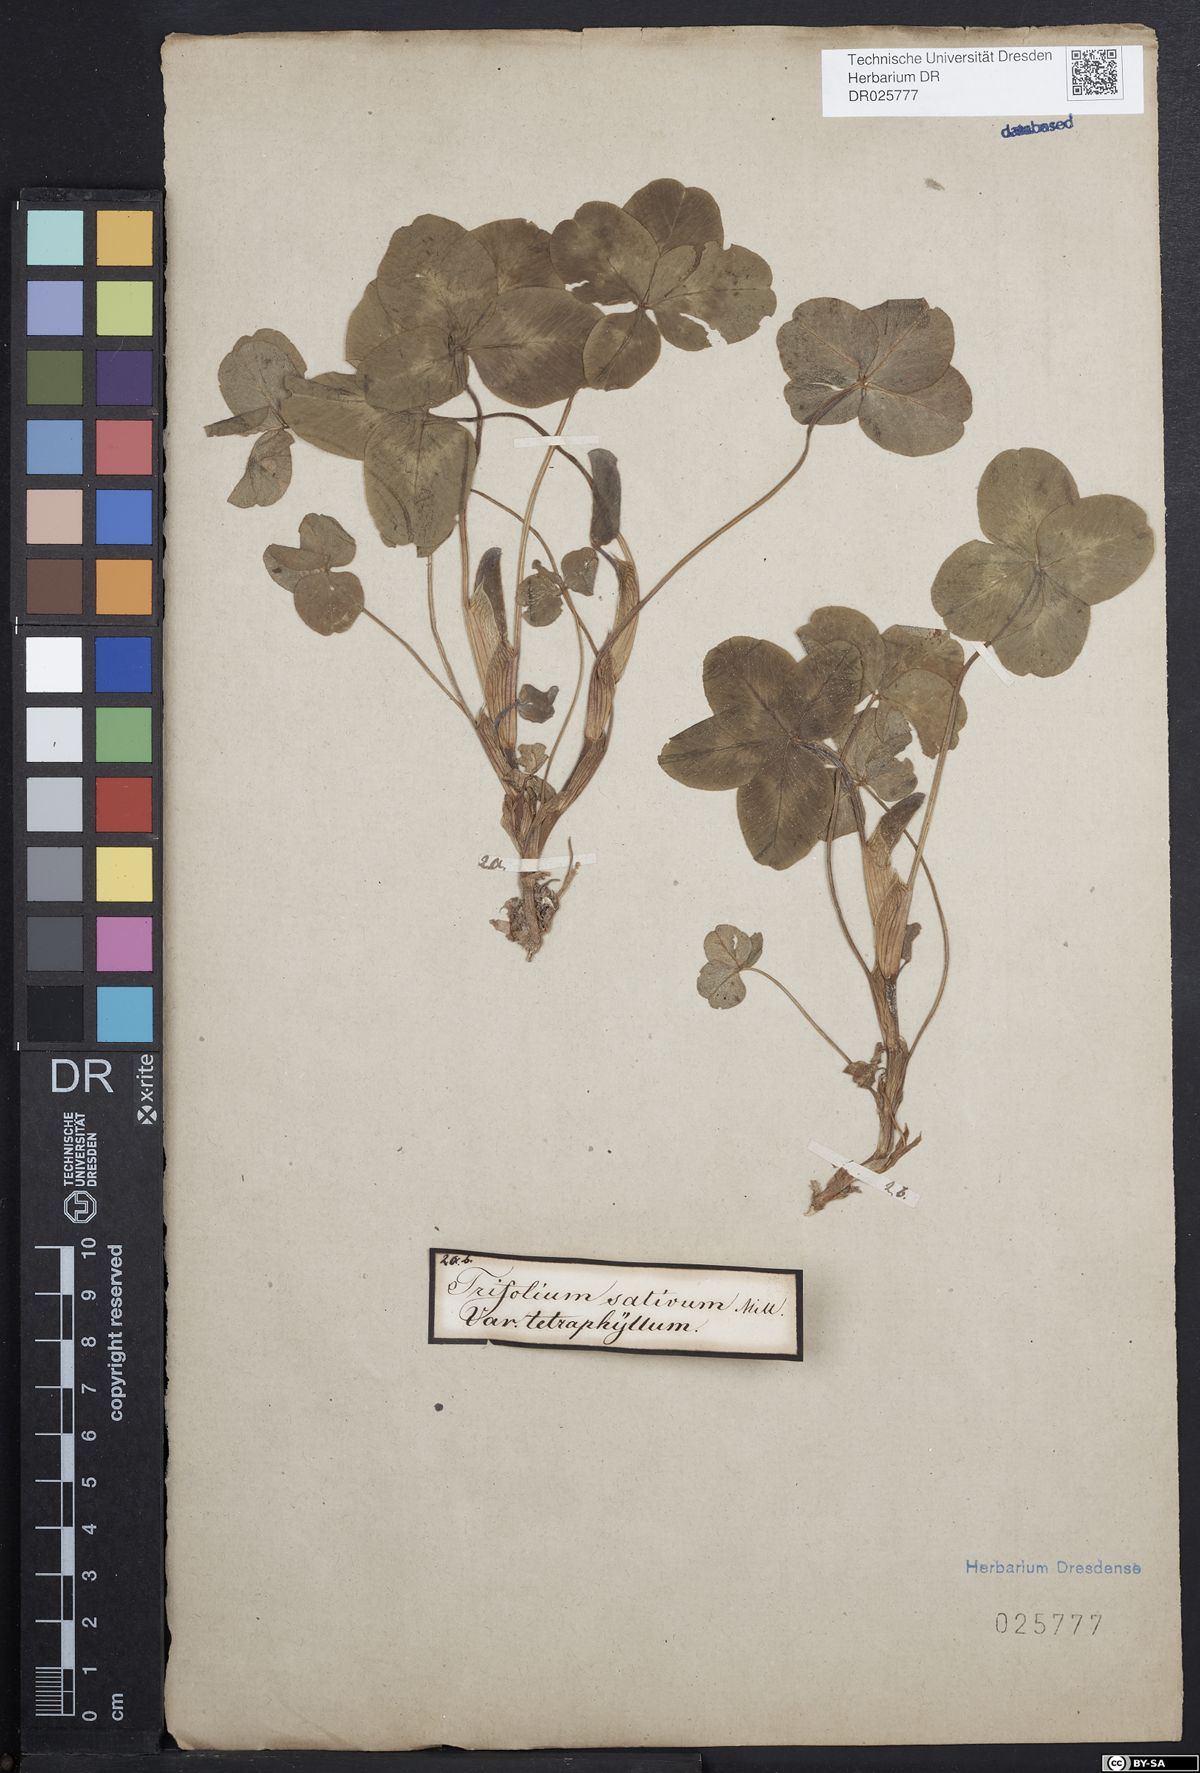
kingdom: Plantae
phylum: Tracheophyta
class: Magnoliopsida
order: Fabales
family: Fabaceae
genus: Trifolium
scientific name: Trifolium pratense
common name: Red clover
